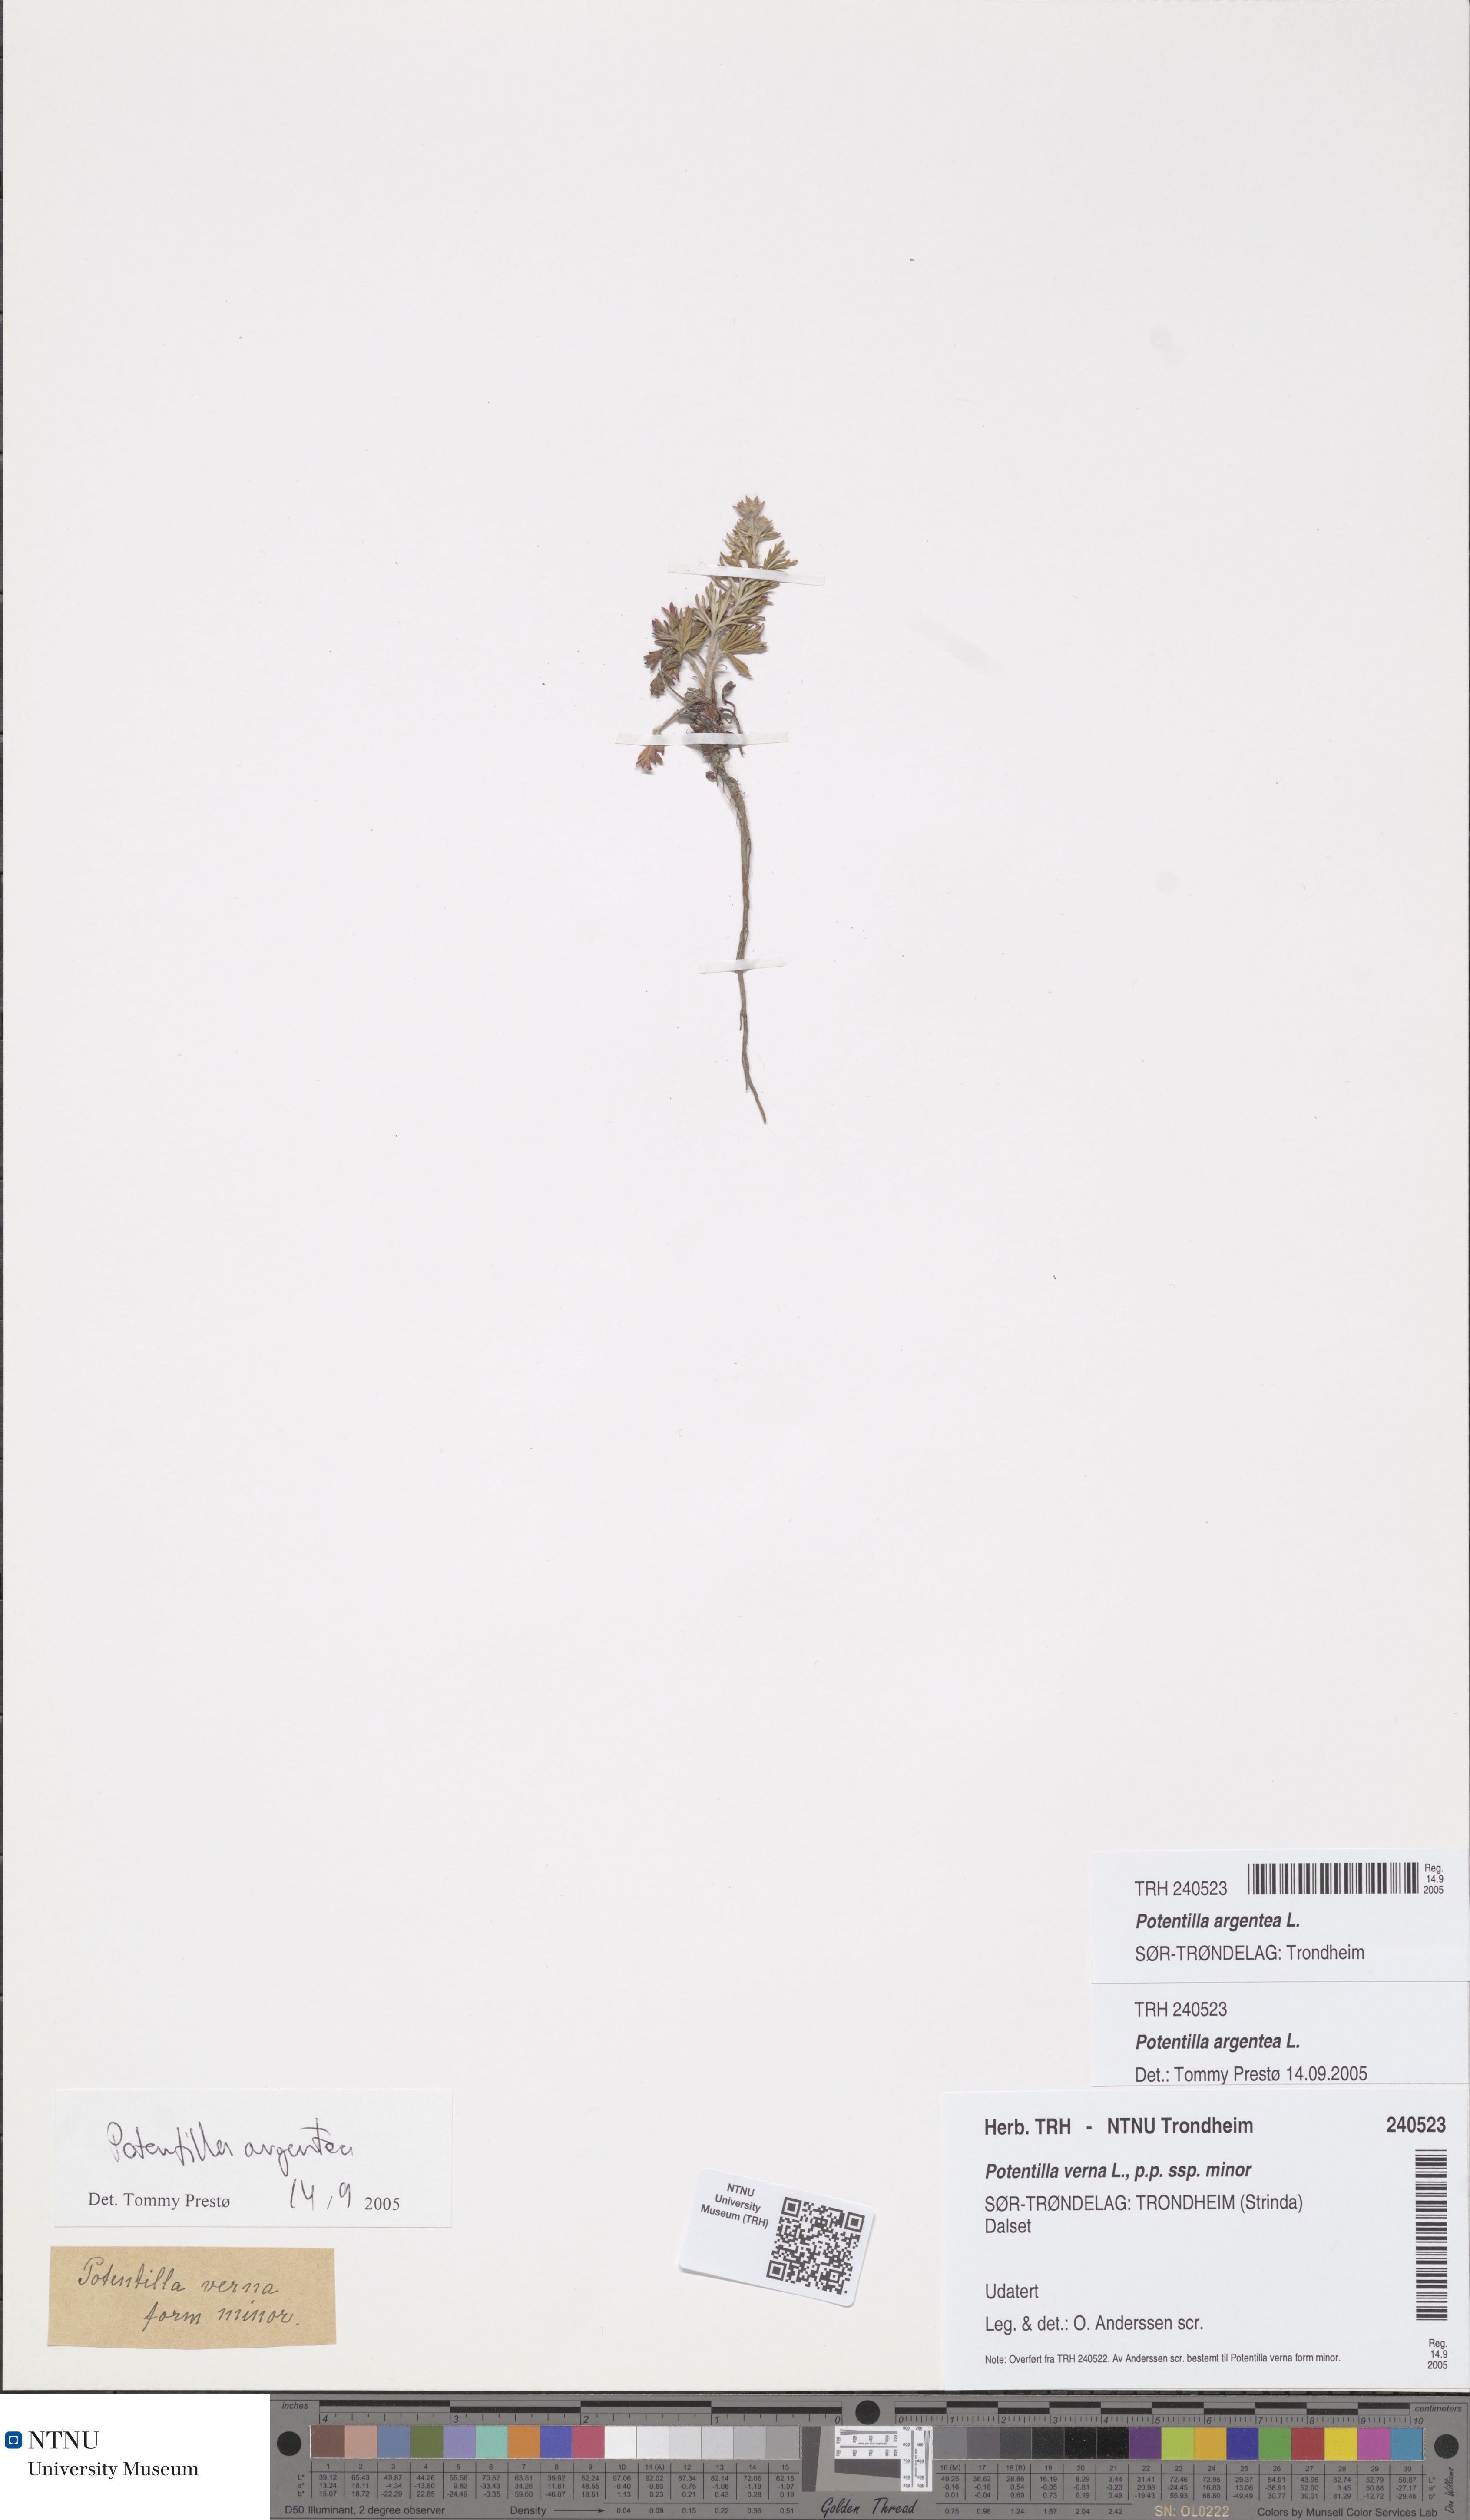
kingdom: Plantae
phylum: Tracheophyta
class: Magnoliopsida
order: Rosales
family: Rosaceae
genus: Potentilla
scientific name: Potentilla argentea
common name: Hoary cinquefoil
